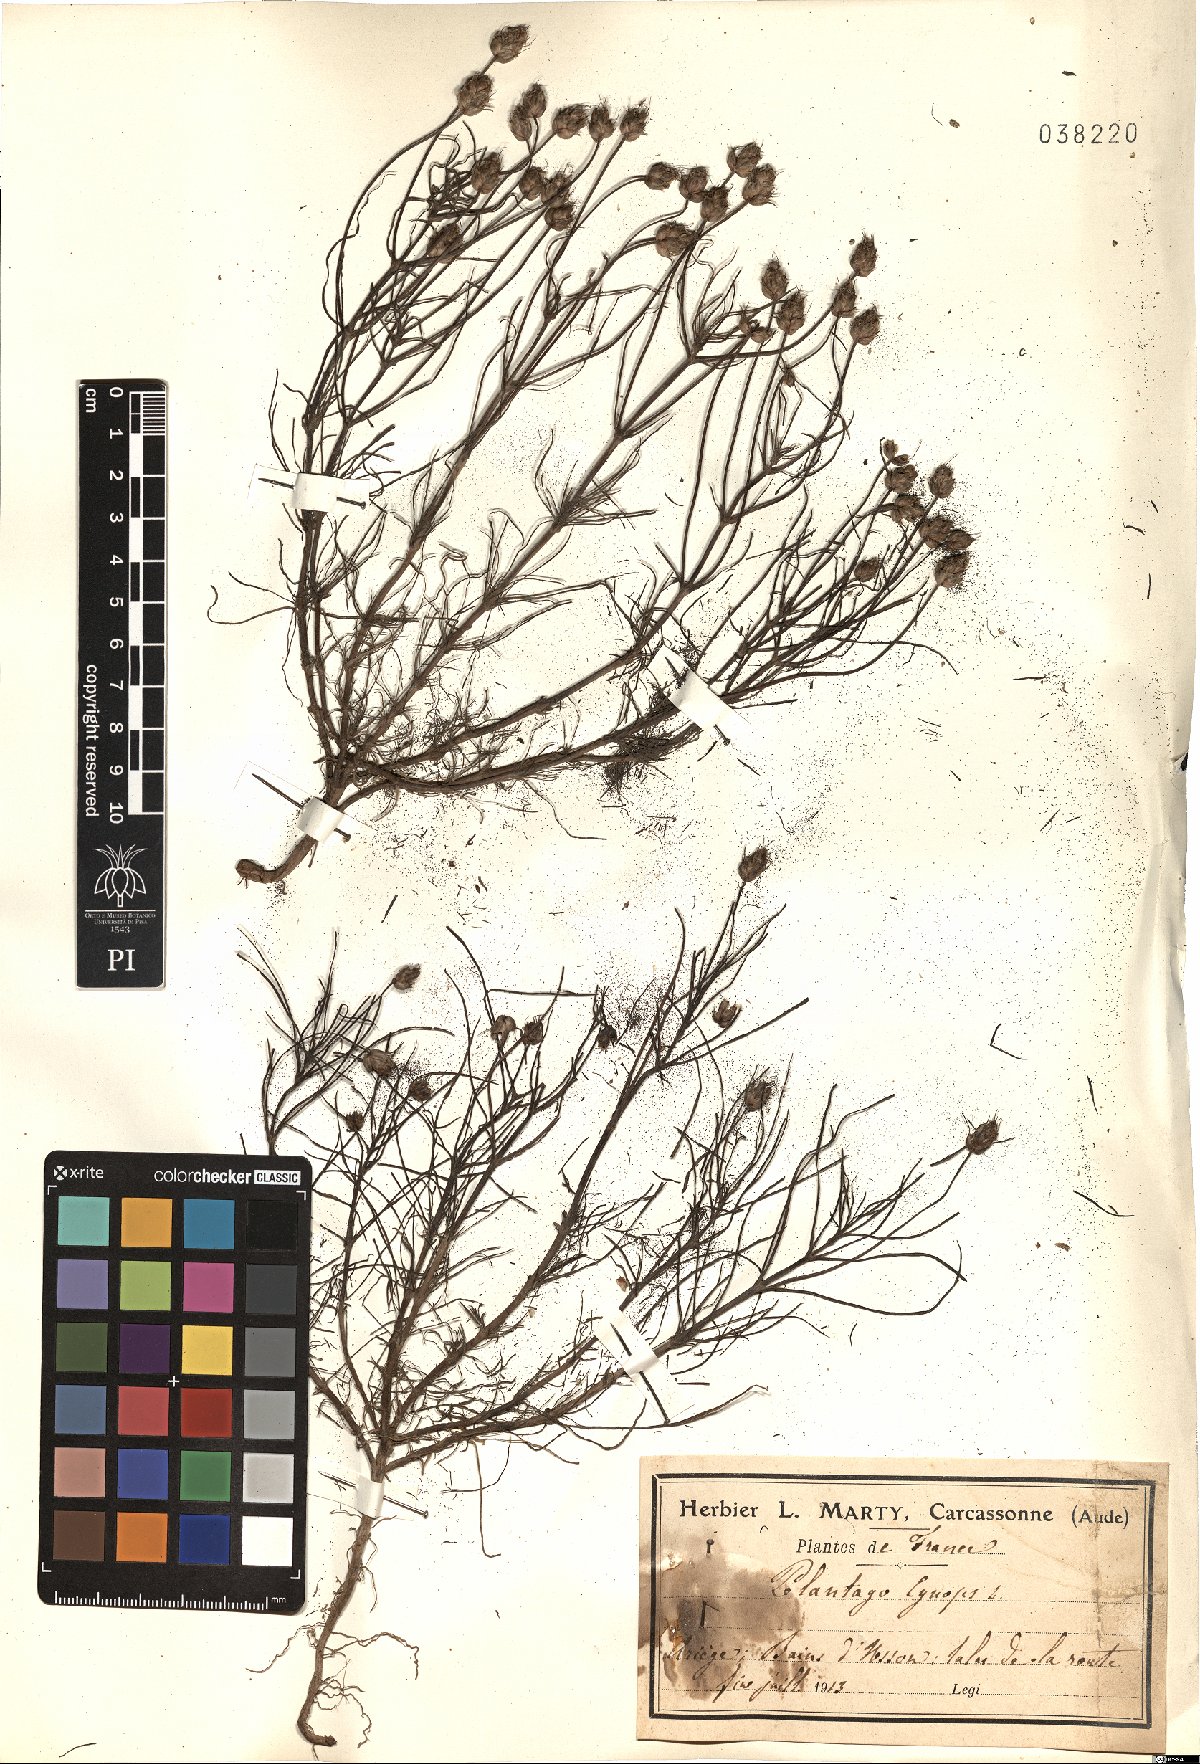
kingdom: Plantae
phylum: Tracheophyta
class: Magnoliopsida
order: Lamiales
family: Plantaginaceae
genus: Plantago
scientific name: Plantago sempervirens
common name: Shrubby plantain
